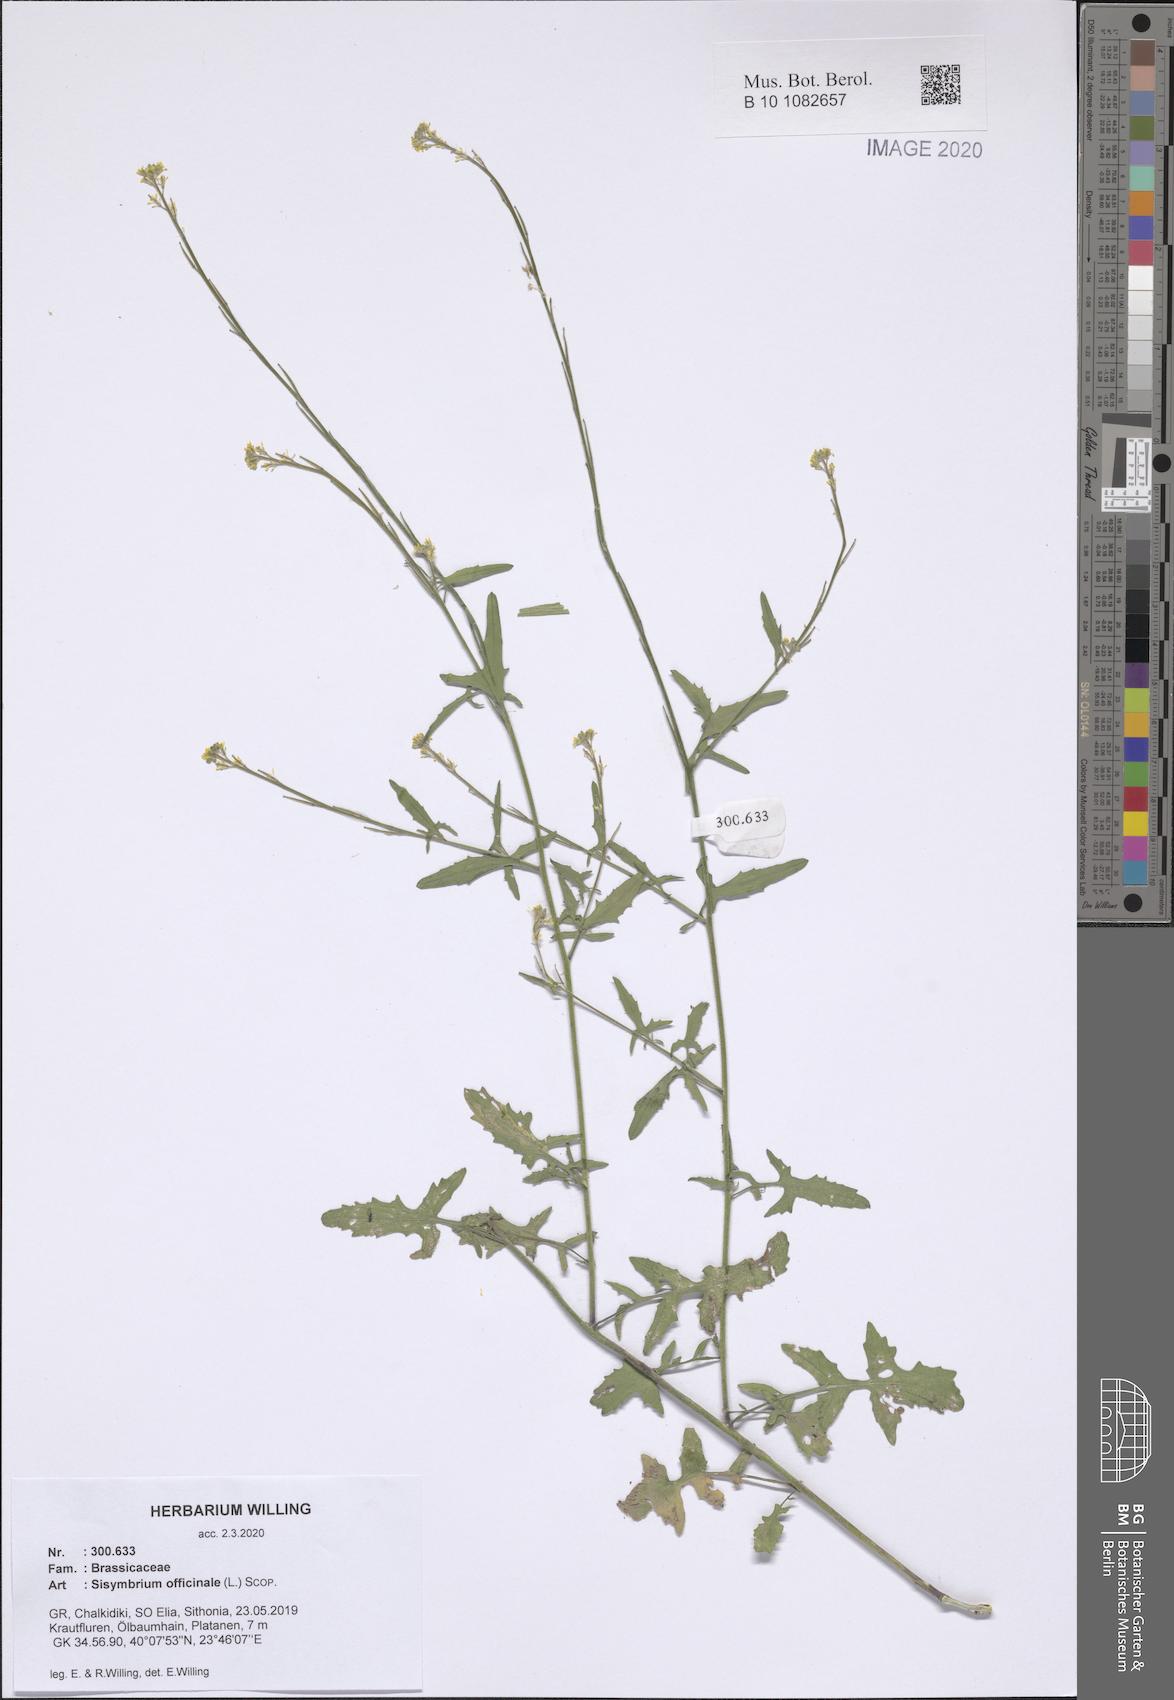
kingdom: Plantae
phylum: Tracheophyta
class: Magnoliopsida
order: Brassicales
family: Brassicaceae
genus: Sisymbrium
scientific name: Sisymbrium officinale
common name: Hedge mustard
